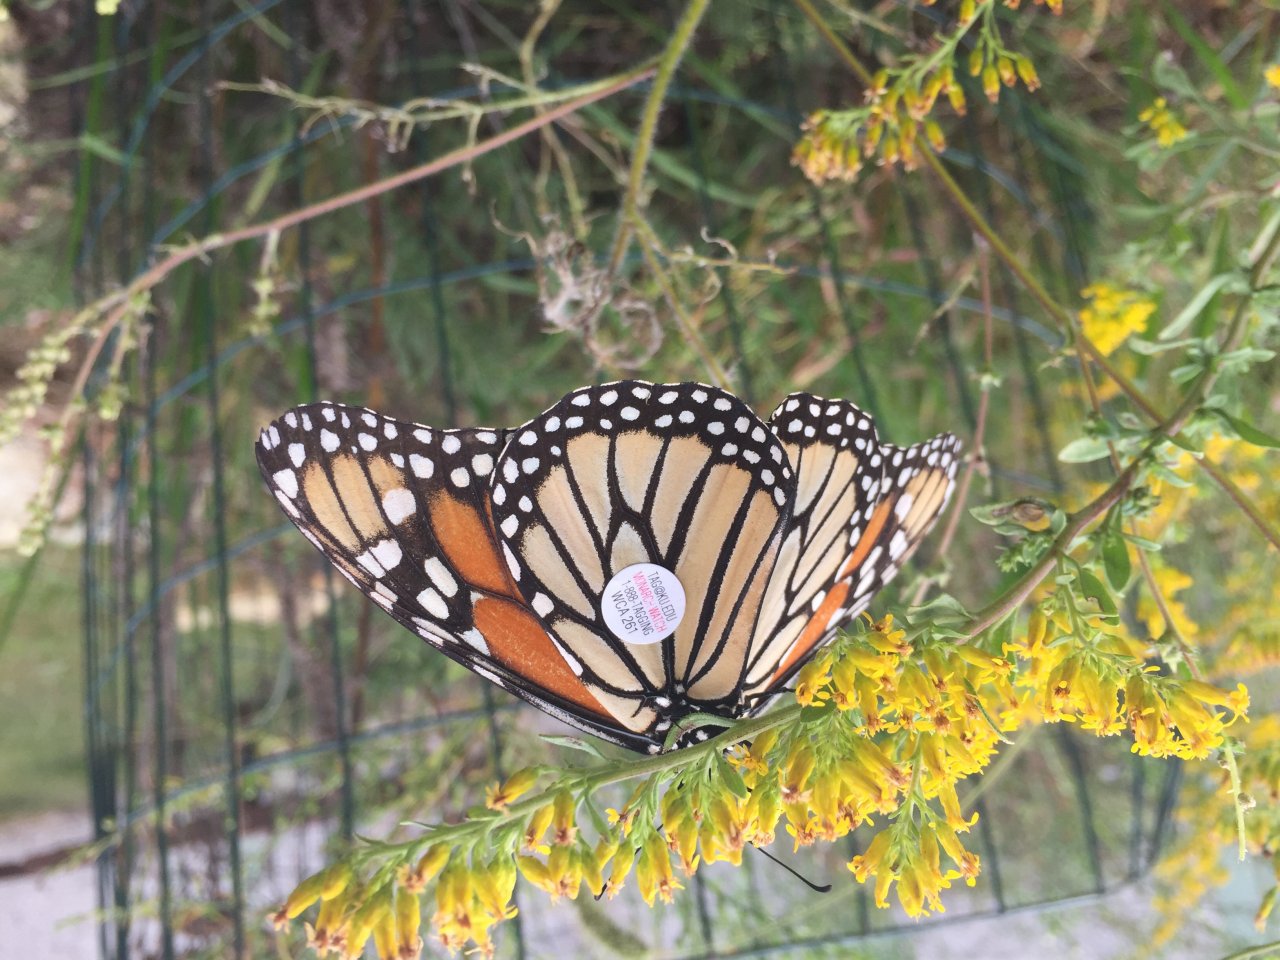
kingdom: Animalia
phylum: Arthropoda
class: Insecta
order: Lepidoptera
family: Nymphalidae
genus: Danaus
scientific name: Danaus plexippus
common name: Monarch
